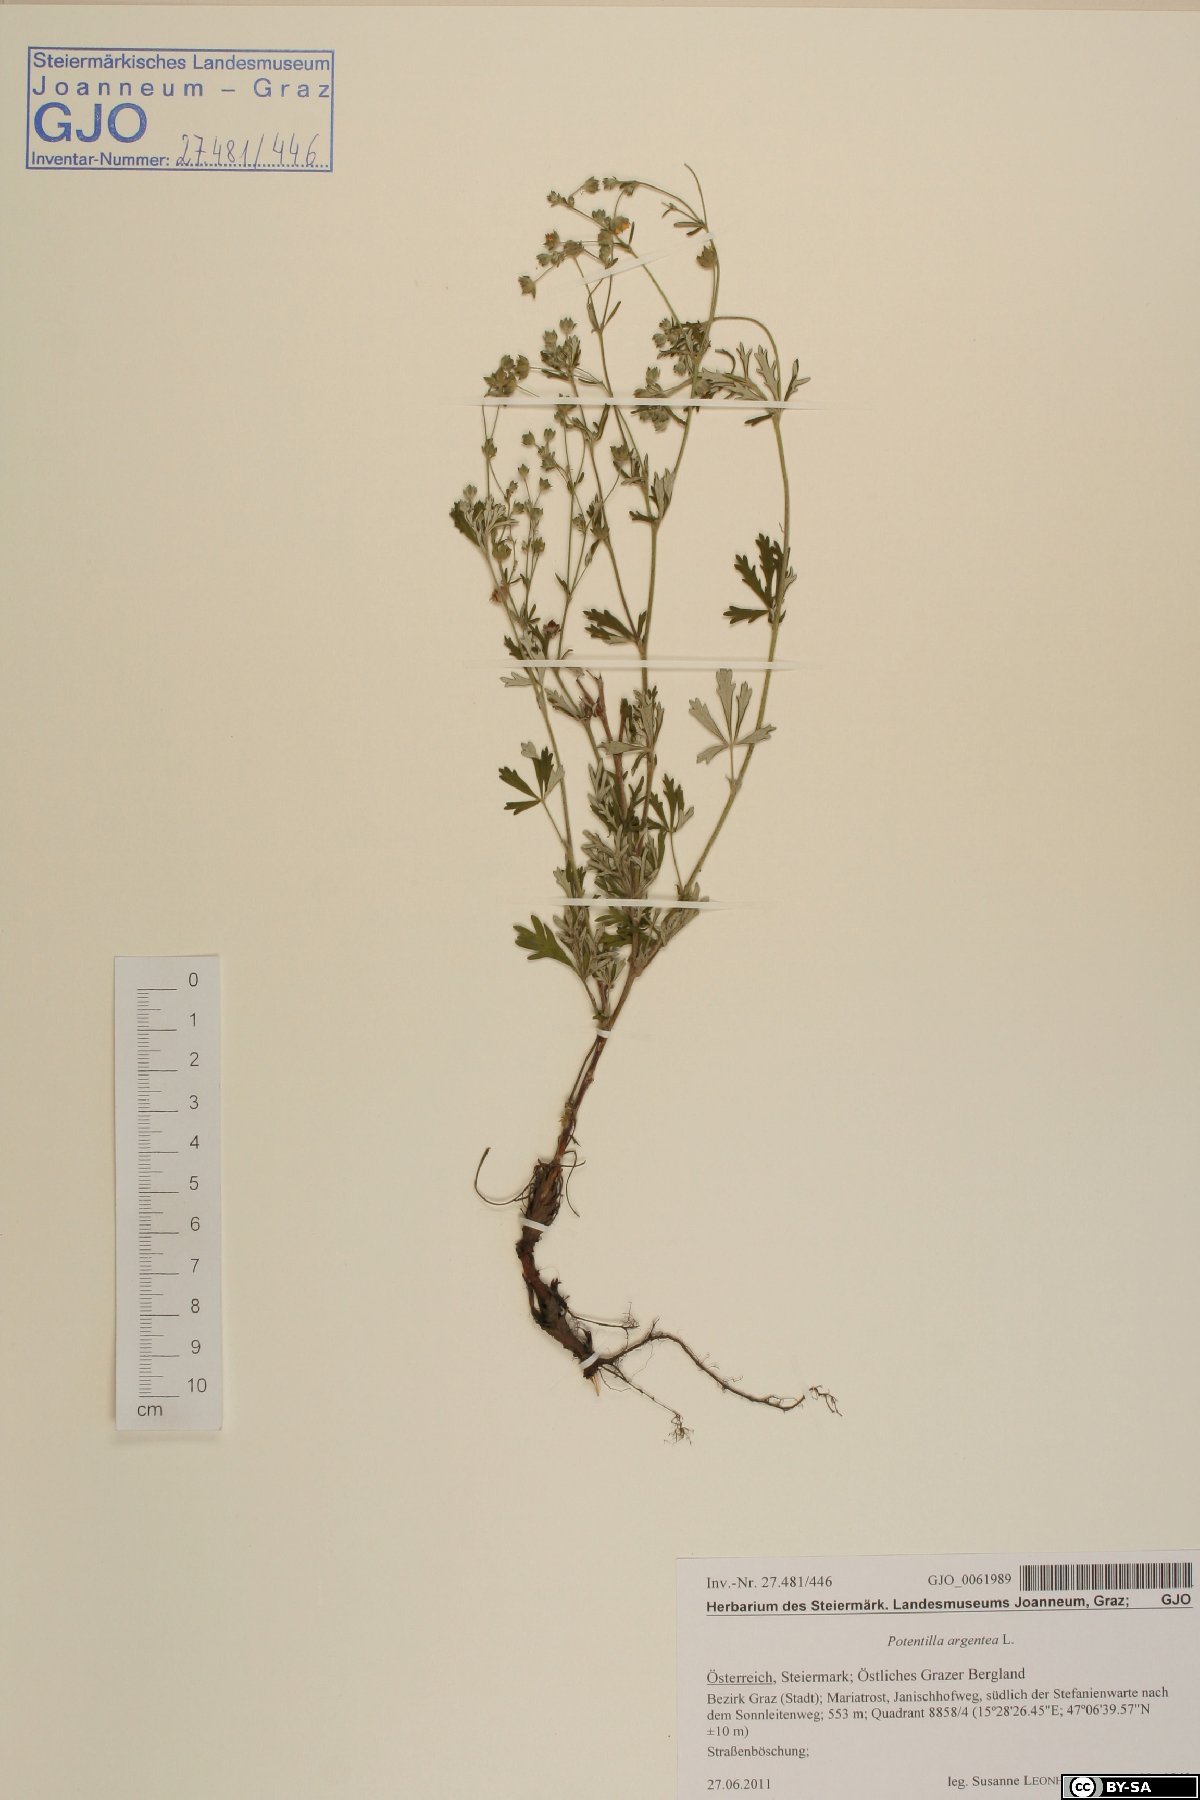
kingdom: Plantae
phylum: Tracheophyta
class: Magnoliopsida
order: Rosales
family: Rosaceae
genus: Potentilla
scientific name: Potentilla argentea
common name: Hoary cinquefoil
